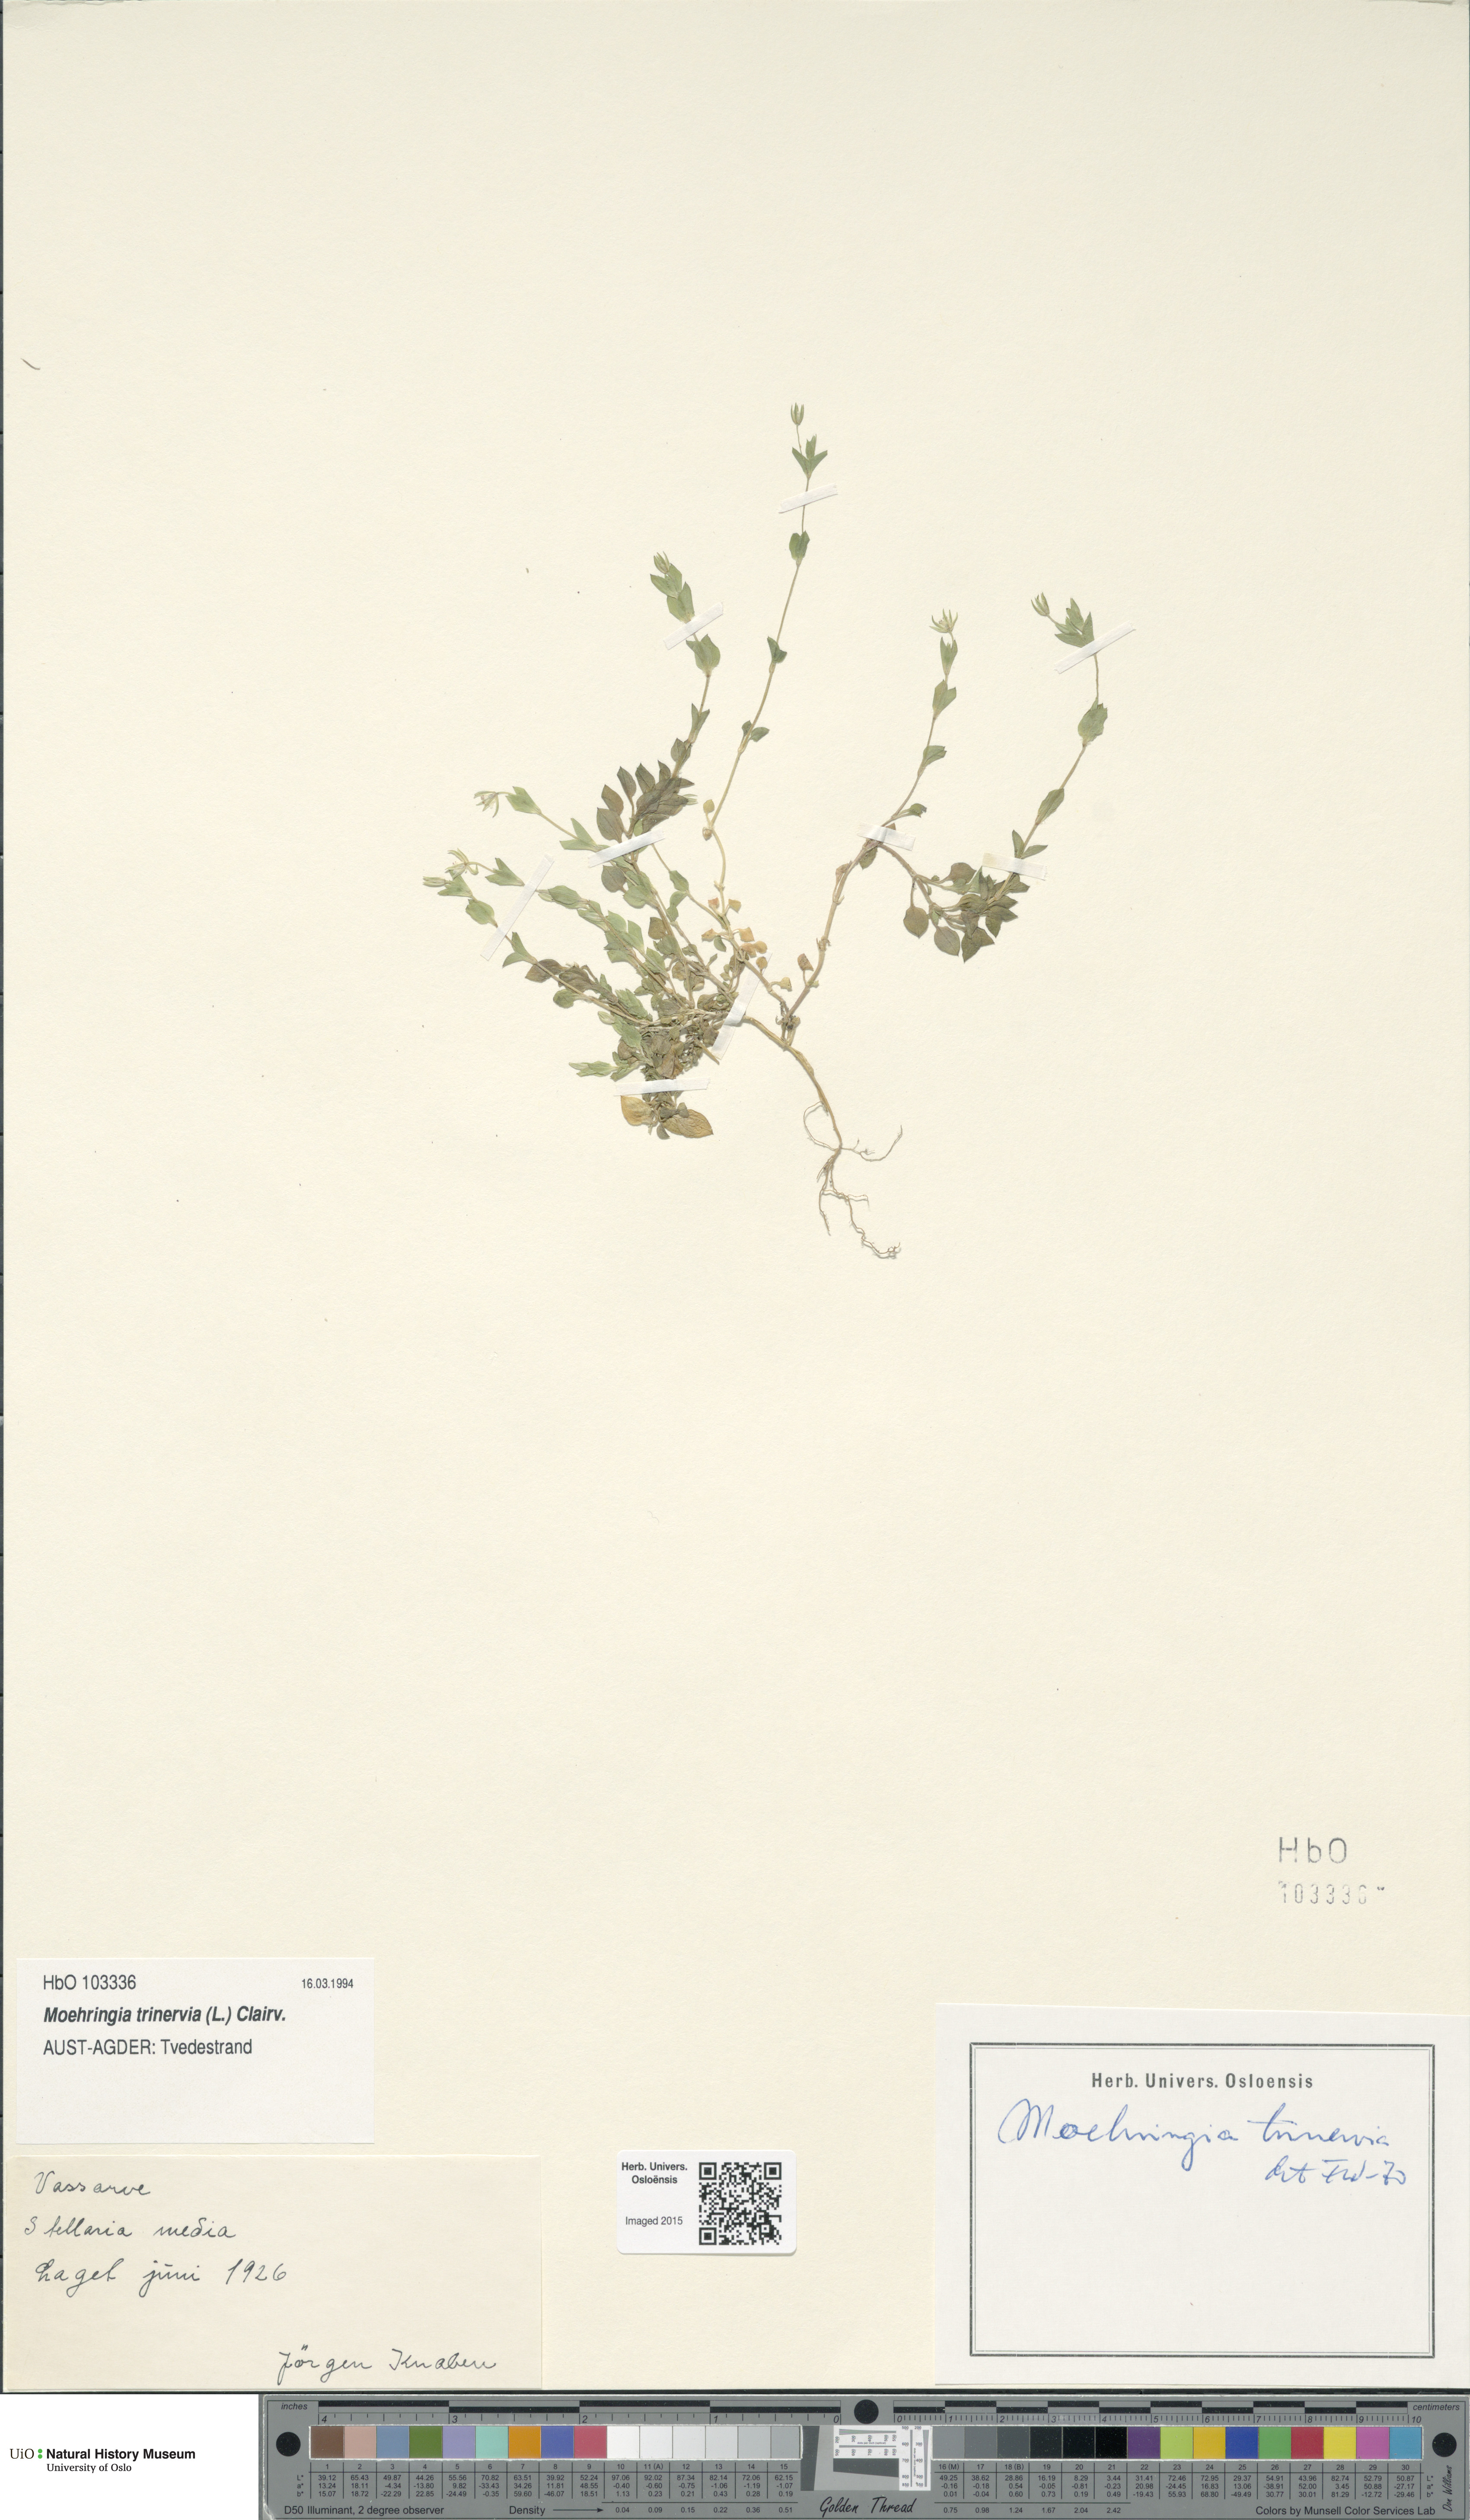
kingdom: Plantae
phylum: Tracheophyta
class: Magnoliopsida
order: Caryophyllales
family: Caryophyllaceae
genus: Moehringia
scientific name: Moehringia trinervia
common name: Three-nerved sandwort
